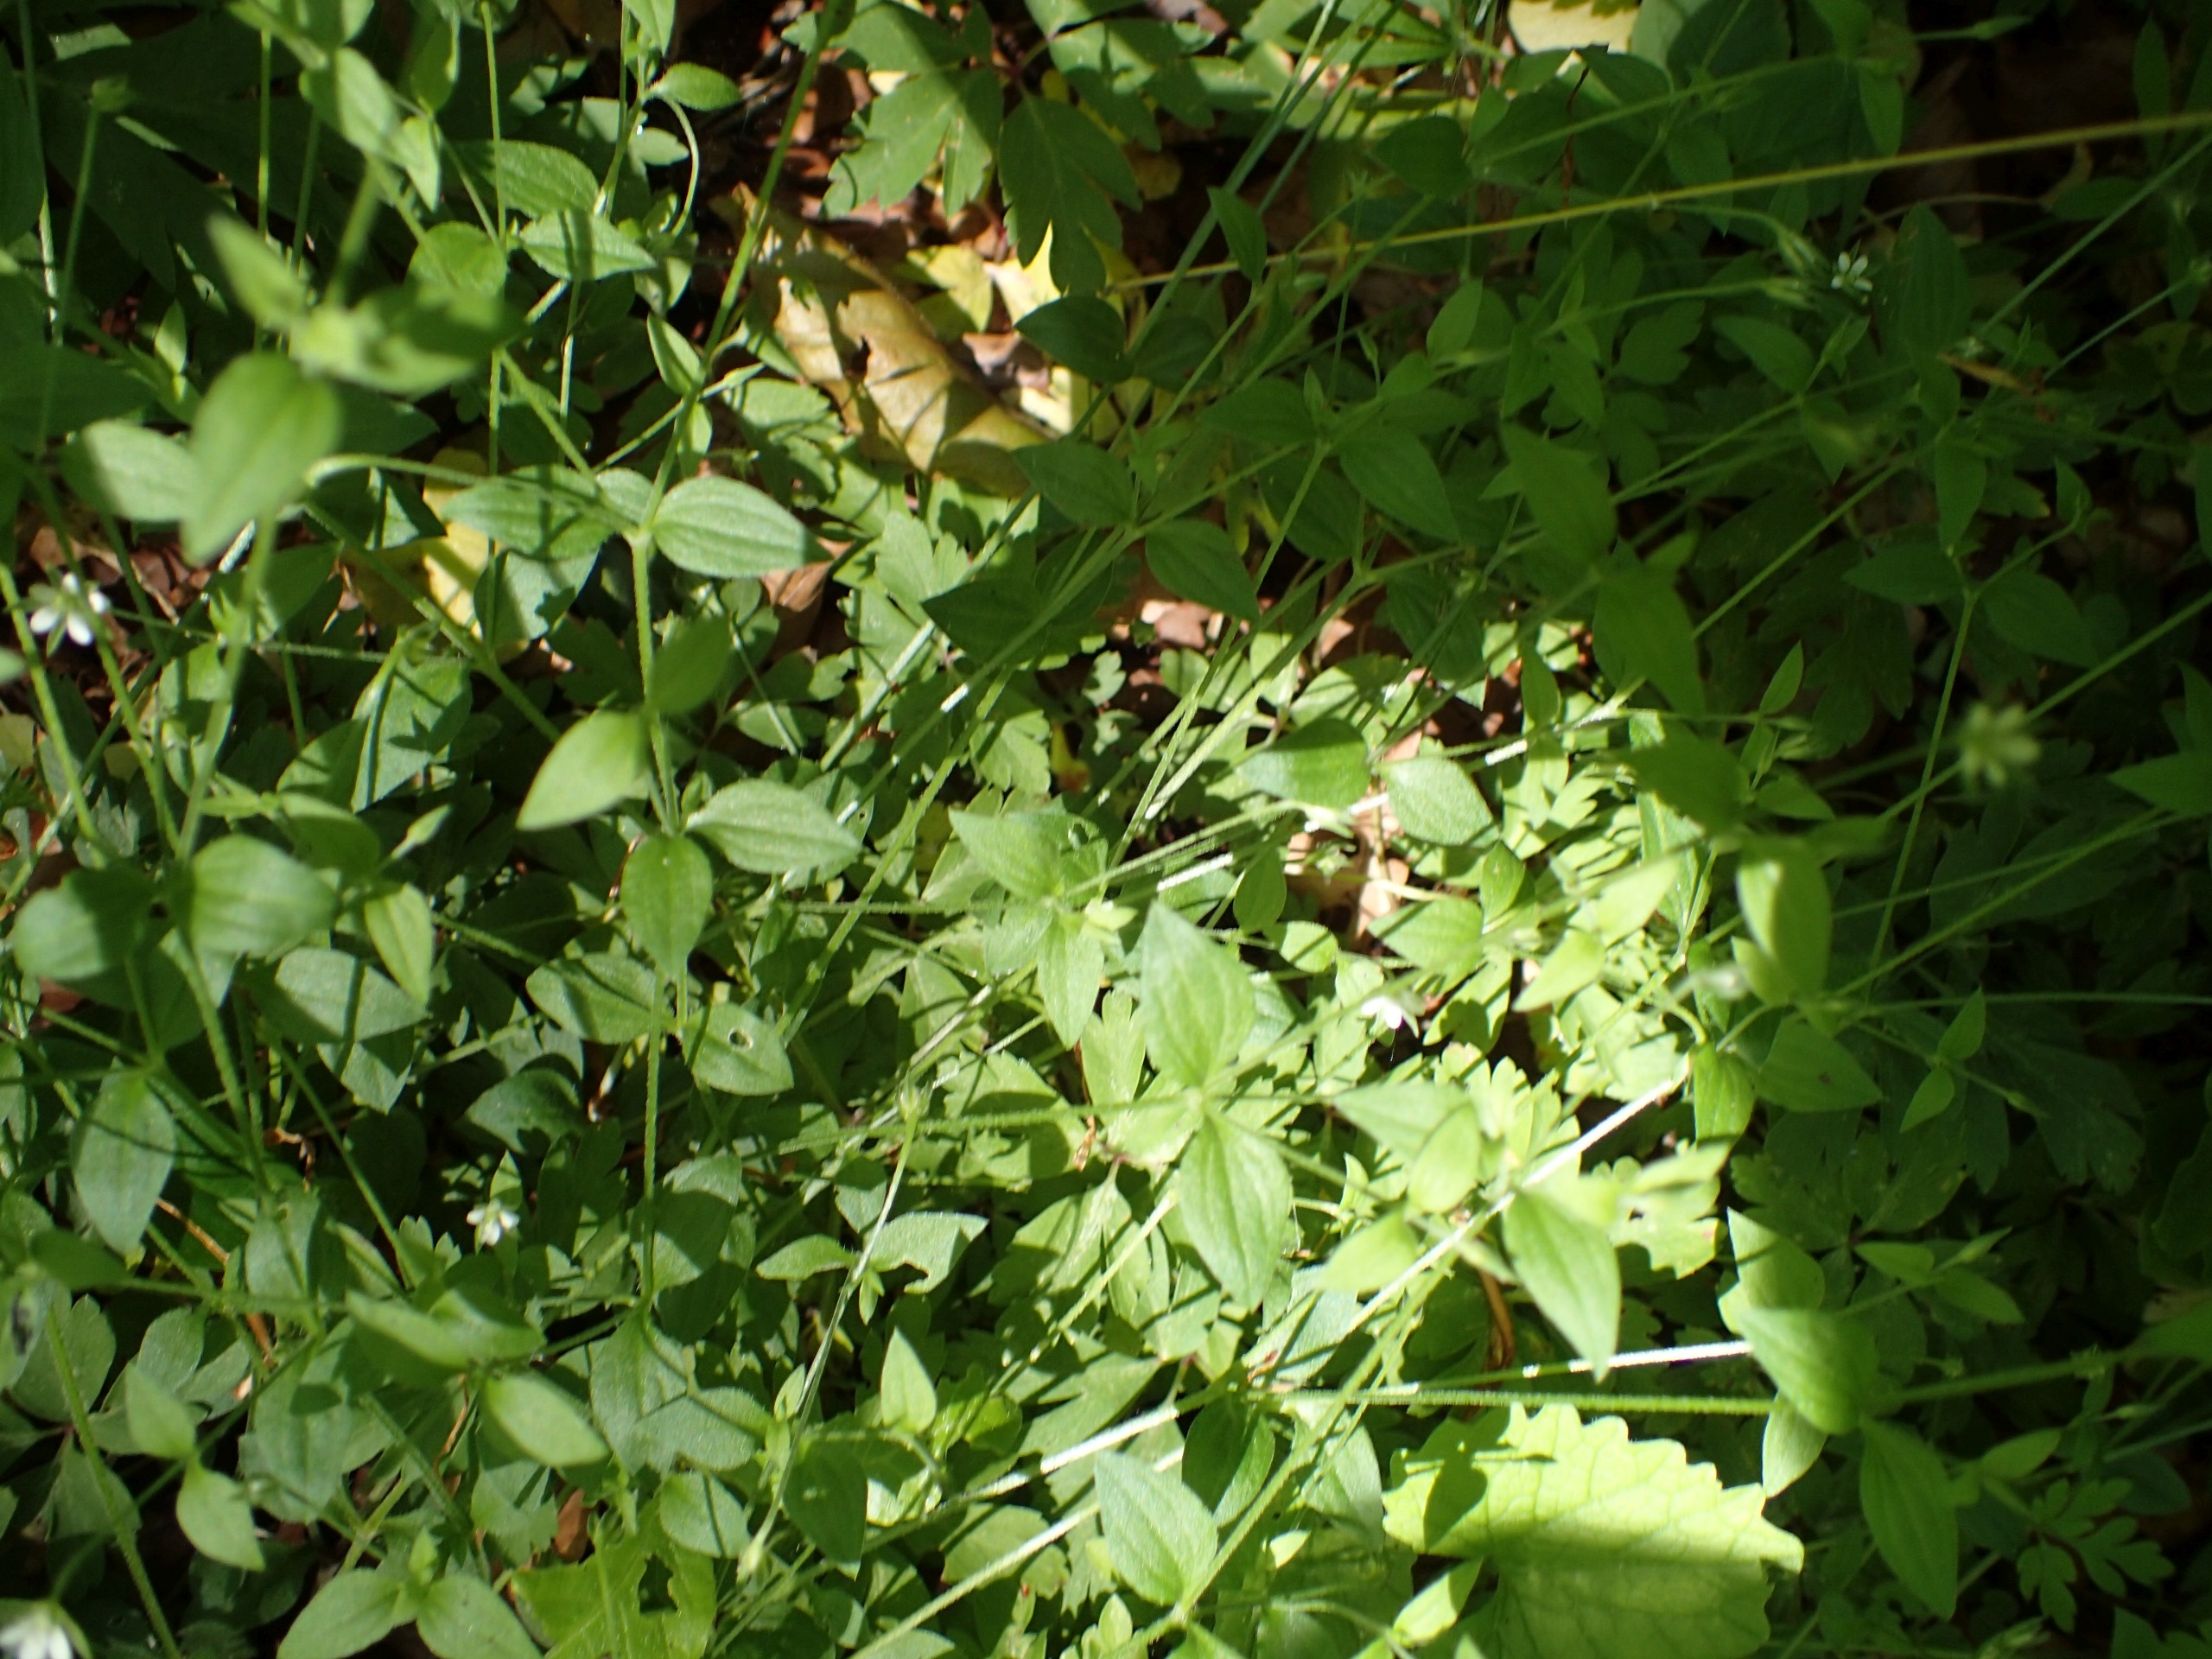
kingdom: Plantae
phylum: Tracheophyta
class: Magnoliopsida
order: Caryophyllales
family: Caryophyllaceae
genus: Moehringia
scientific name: Moehringia trinervia
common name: Skovarve
